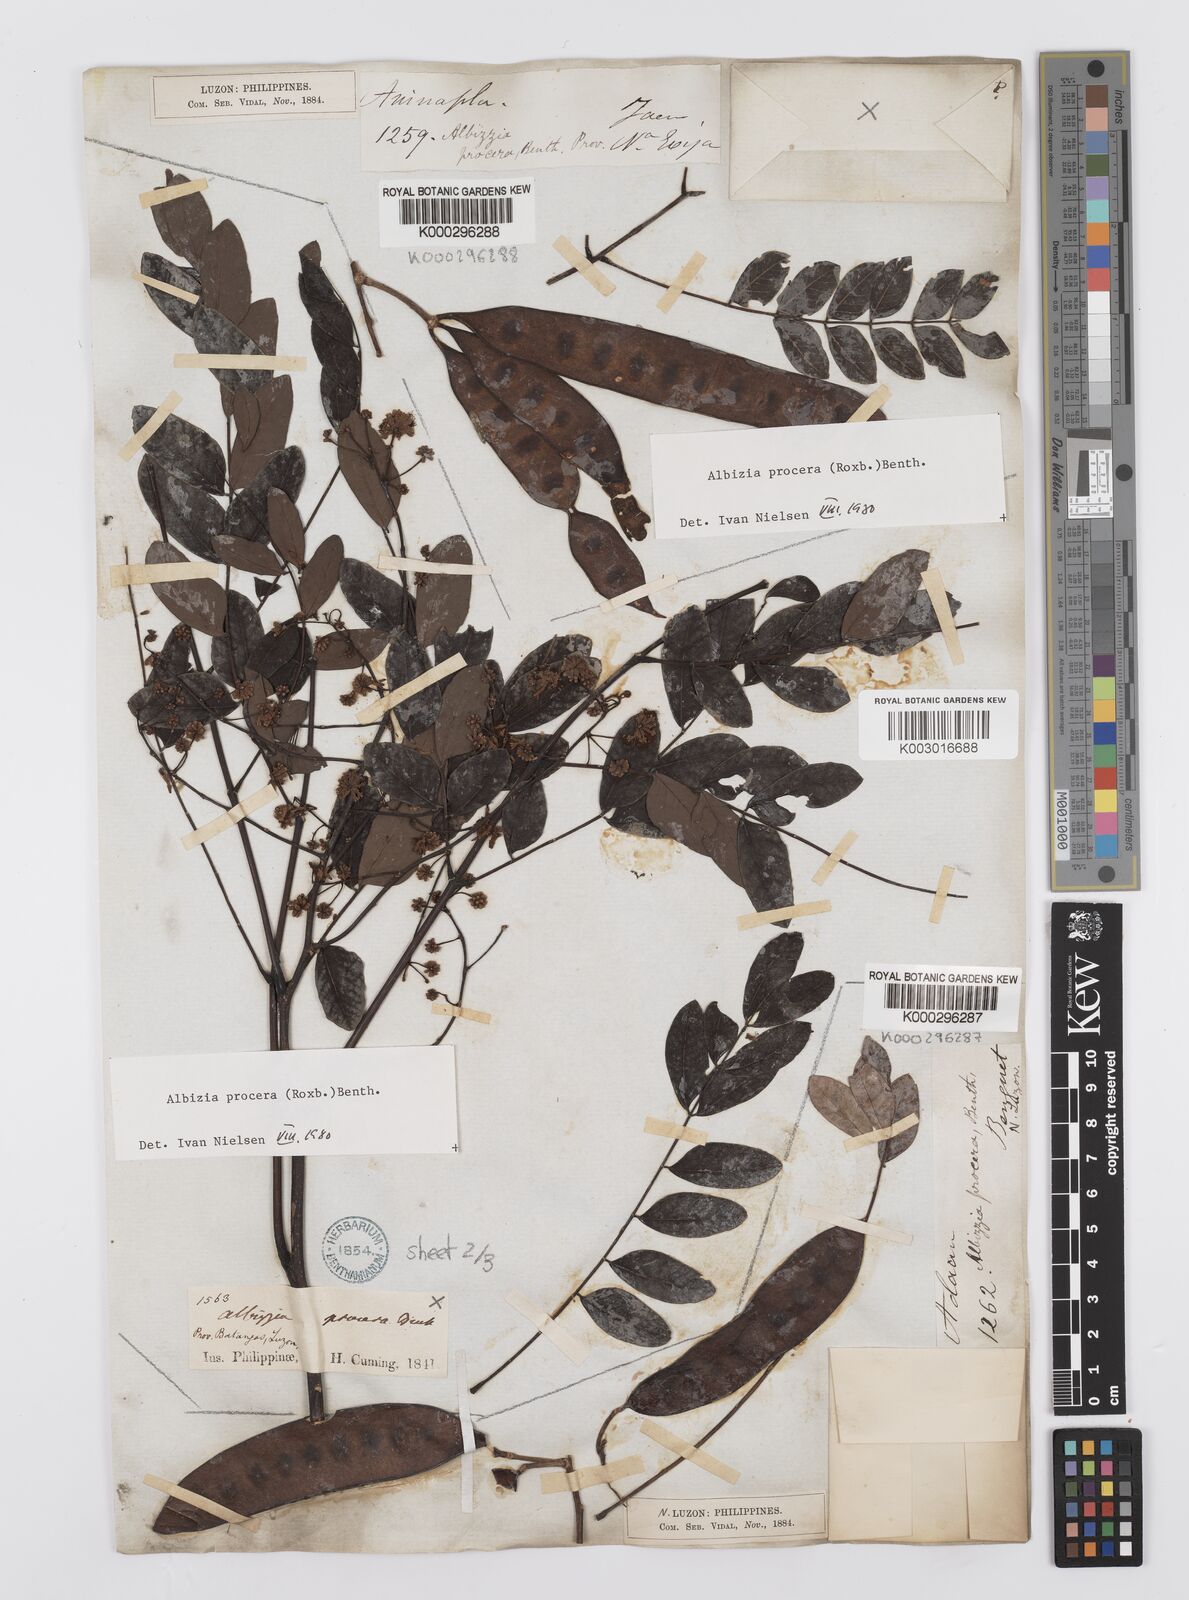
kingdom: Plantae
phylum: Tracheophyta
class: Magnoliopsida
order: Fabales
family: Fabaceae
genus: Albizia
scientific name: Albizia procera
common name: Tall albizia
